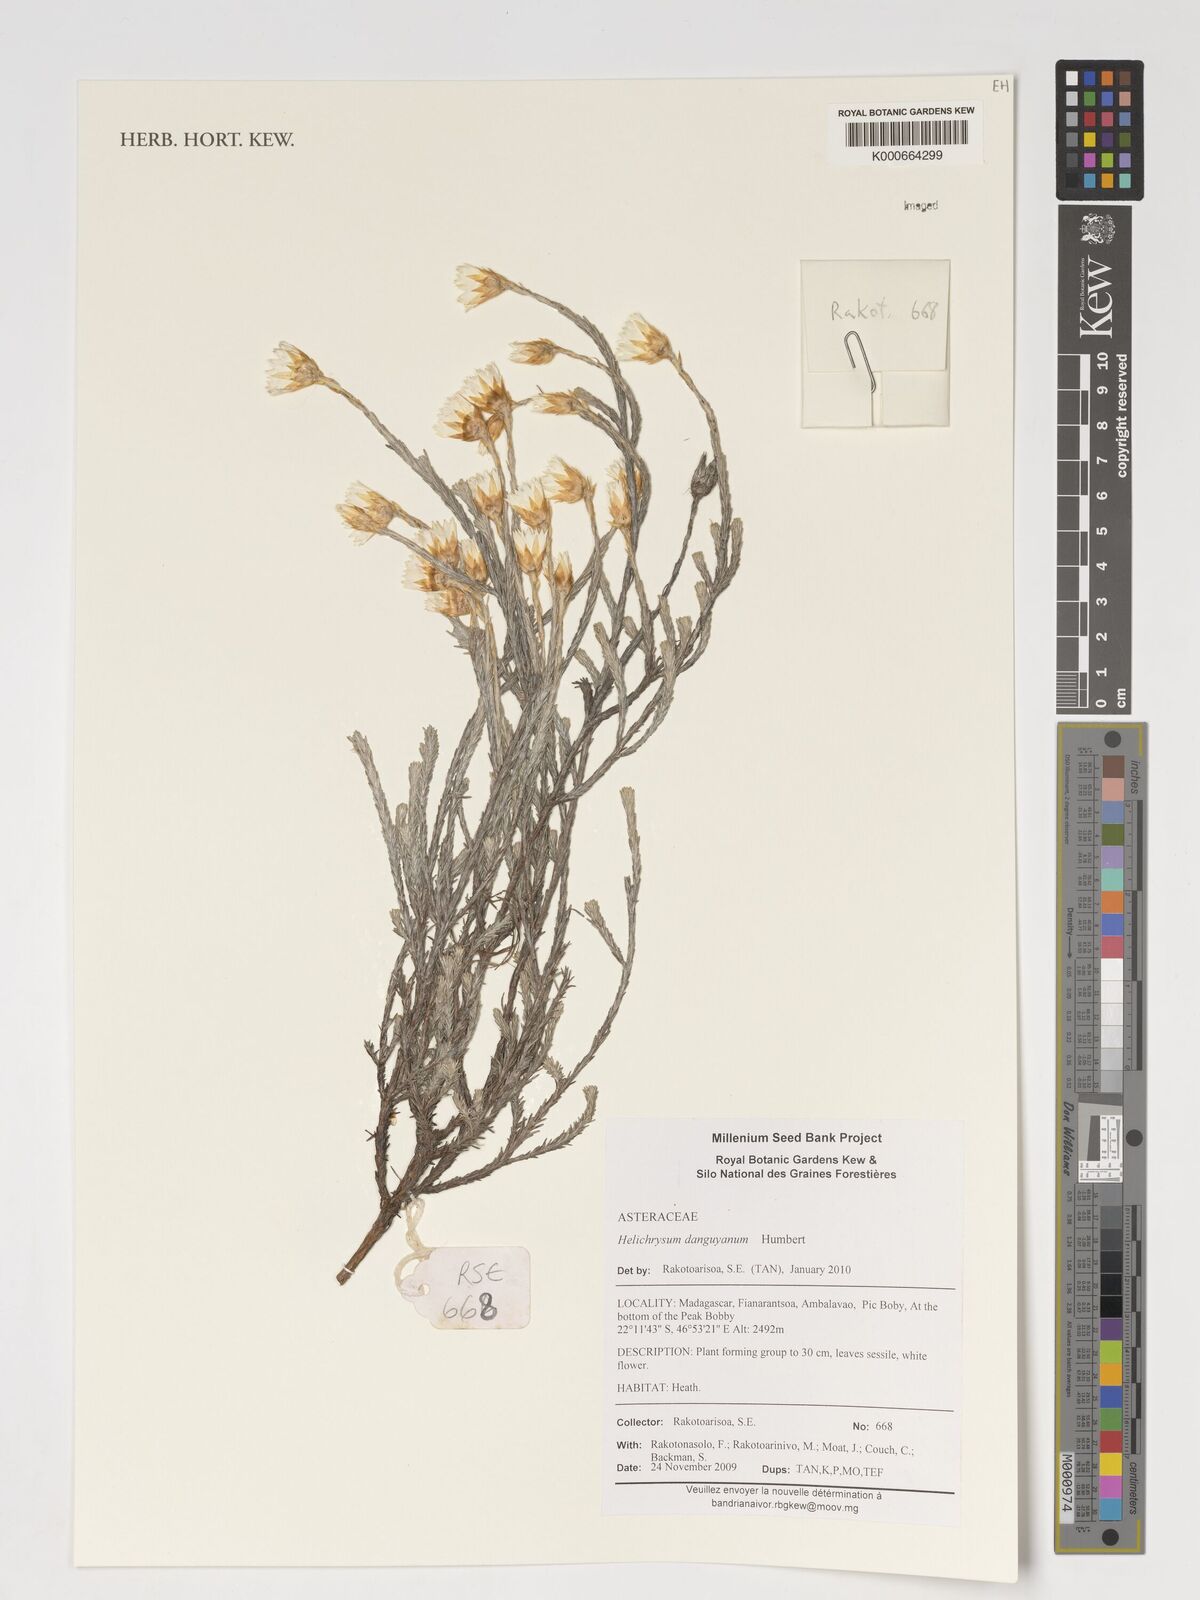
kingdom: Plantae
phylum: Tracheophyta
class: Magnoliopsida
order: Asterales
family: Asteraceae
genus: Helichrysum
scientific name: Helichrysum danguyanum
